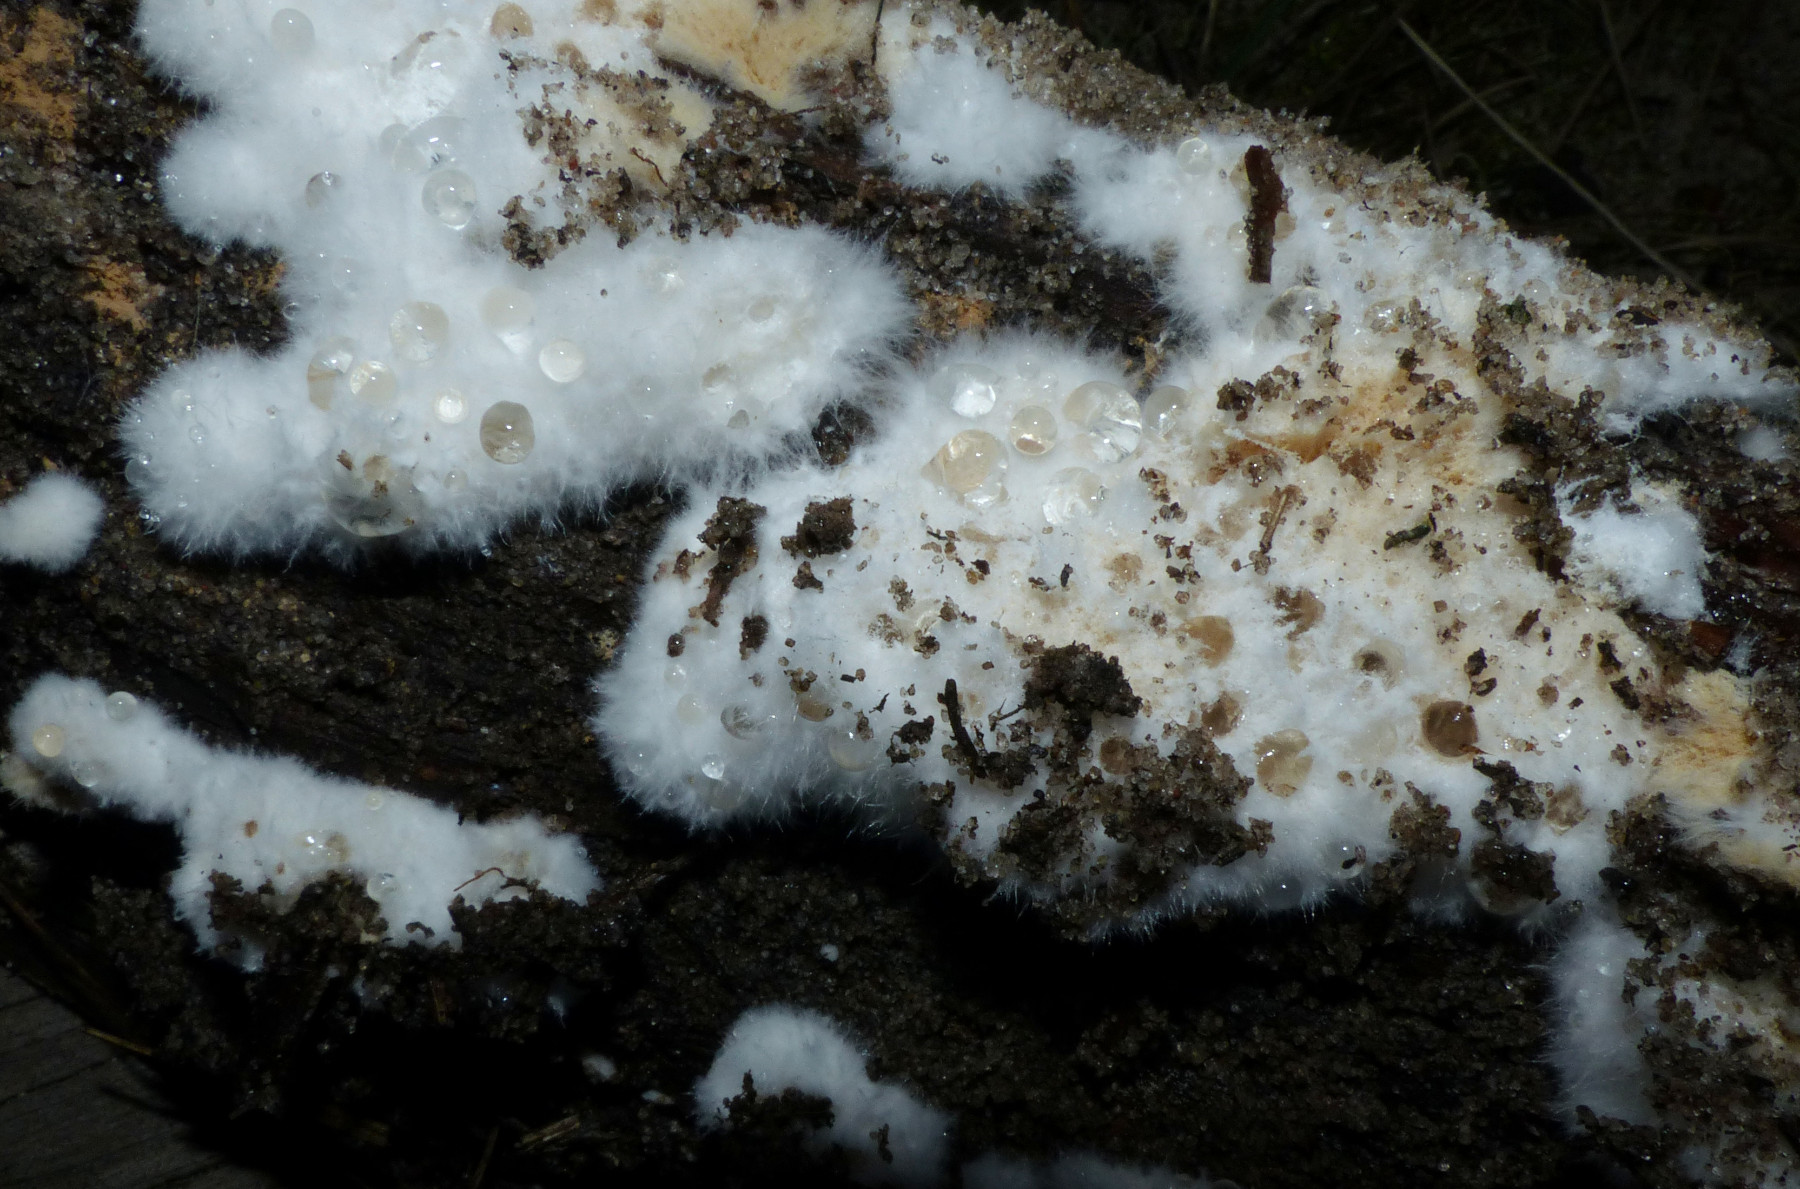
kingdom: Fungi
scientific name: Fungi
